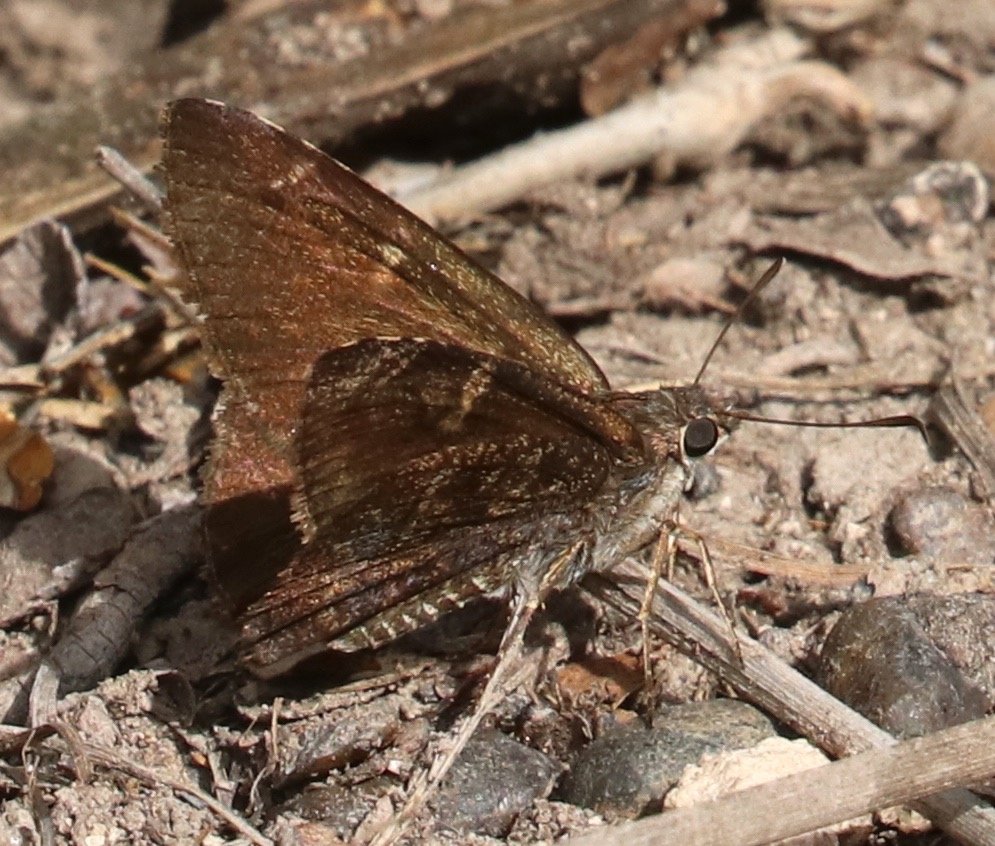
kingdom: Animalia
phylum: Arthropoda
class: Insecta
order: Lepidoptera
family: Hesperiidae
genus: Caicella
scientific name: Caicella calchas
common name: Mimosa Skipper
